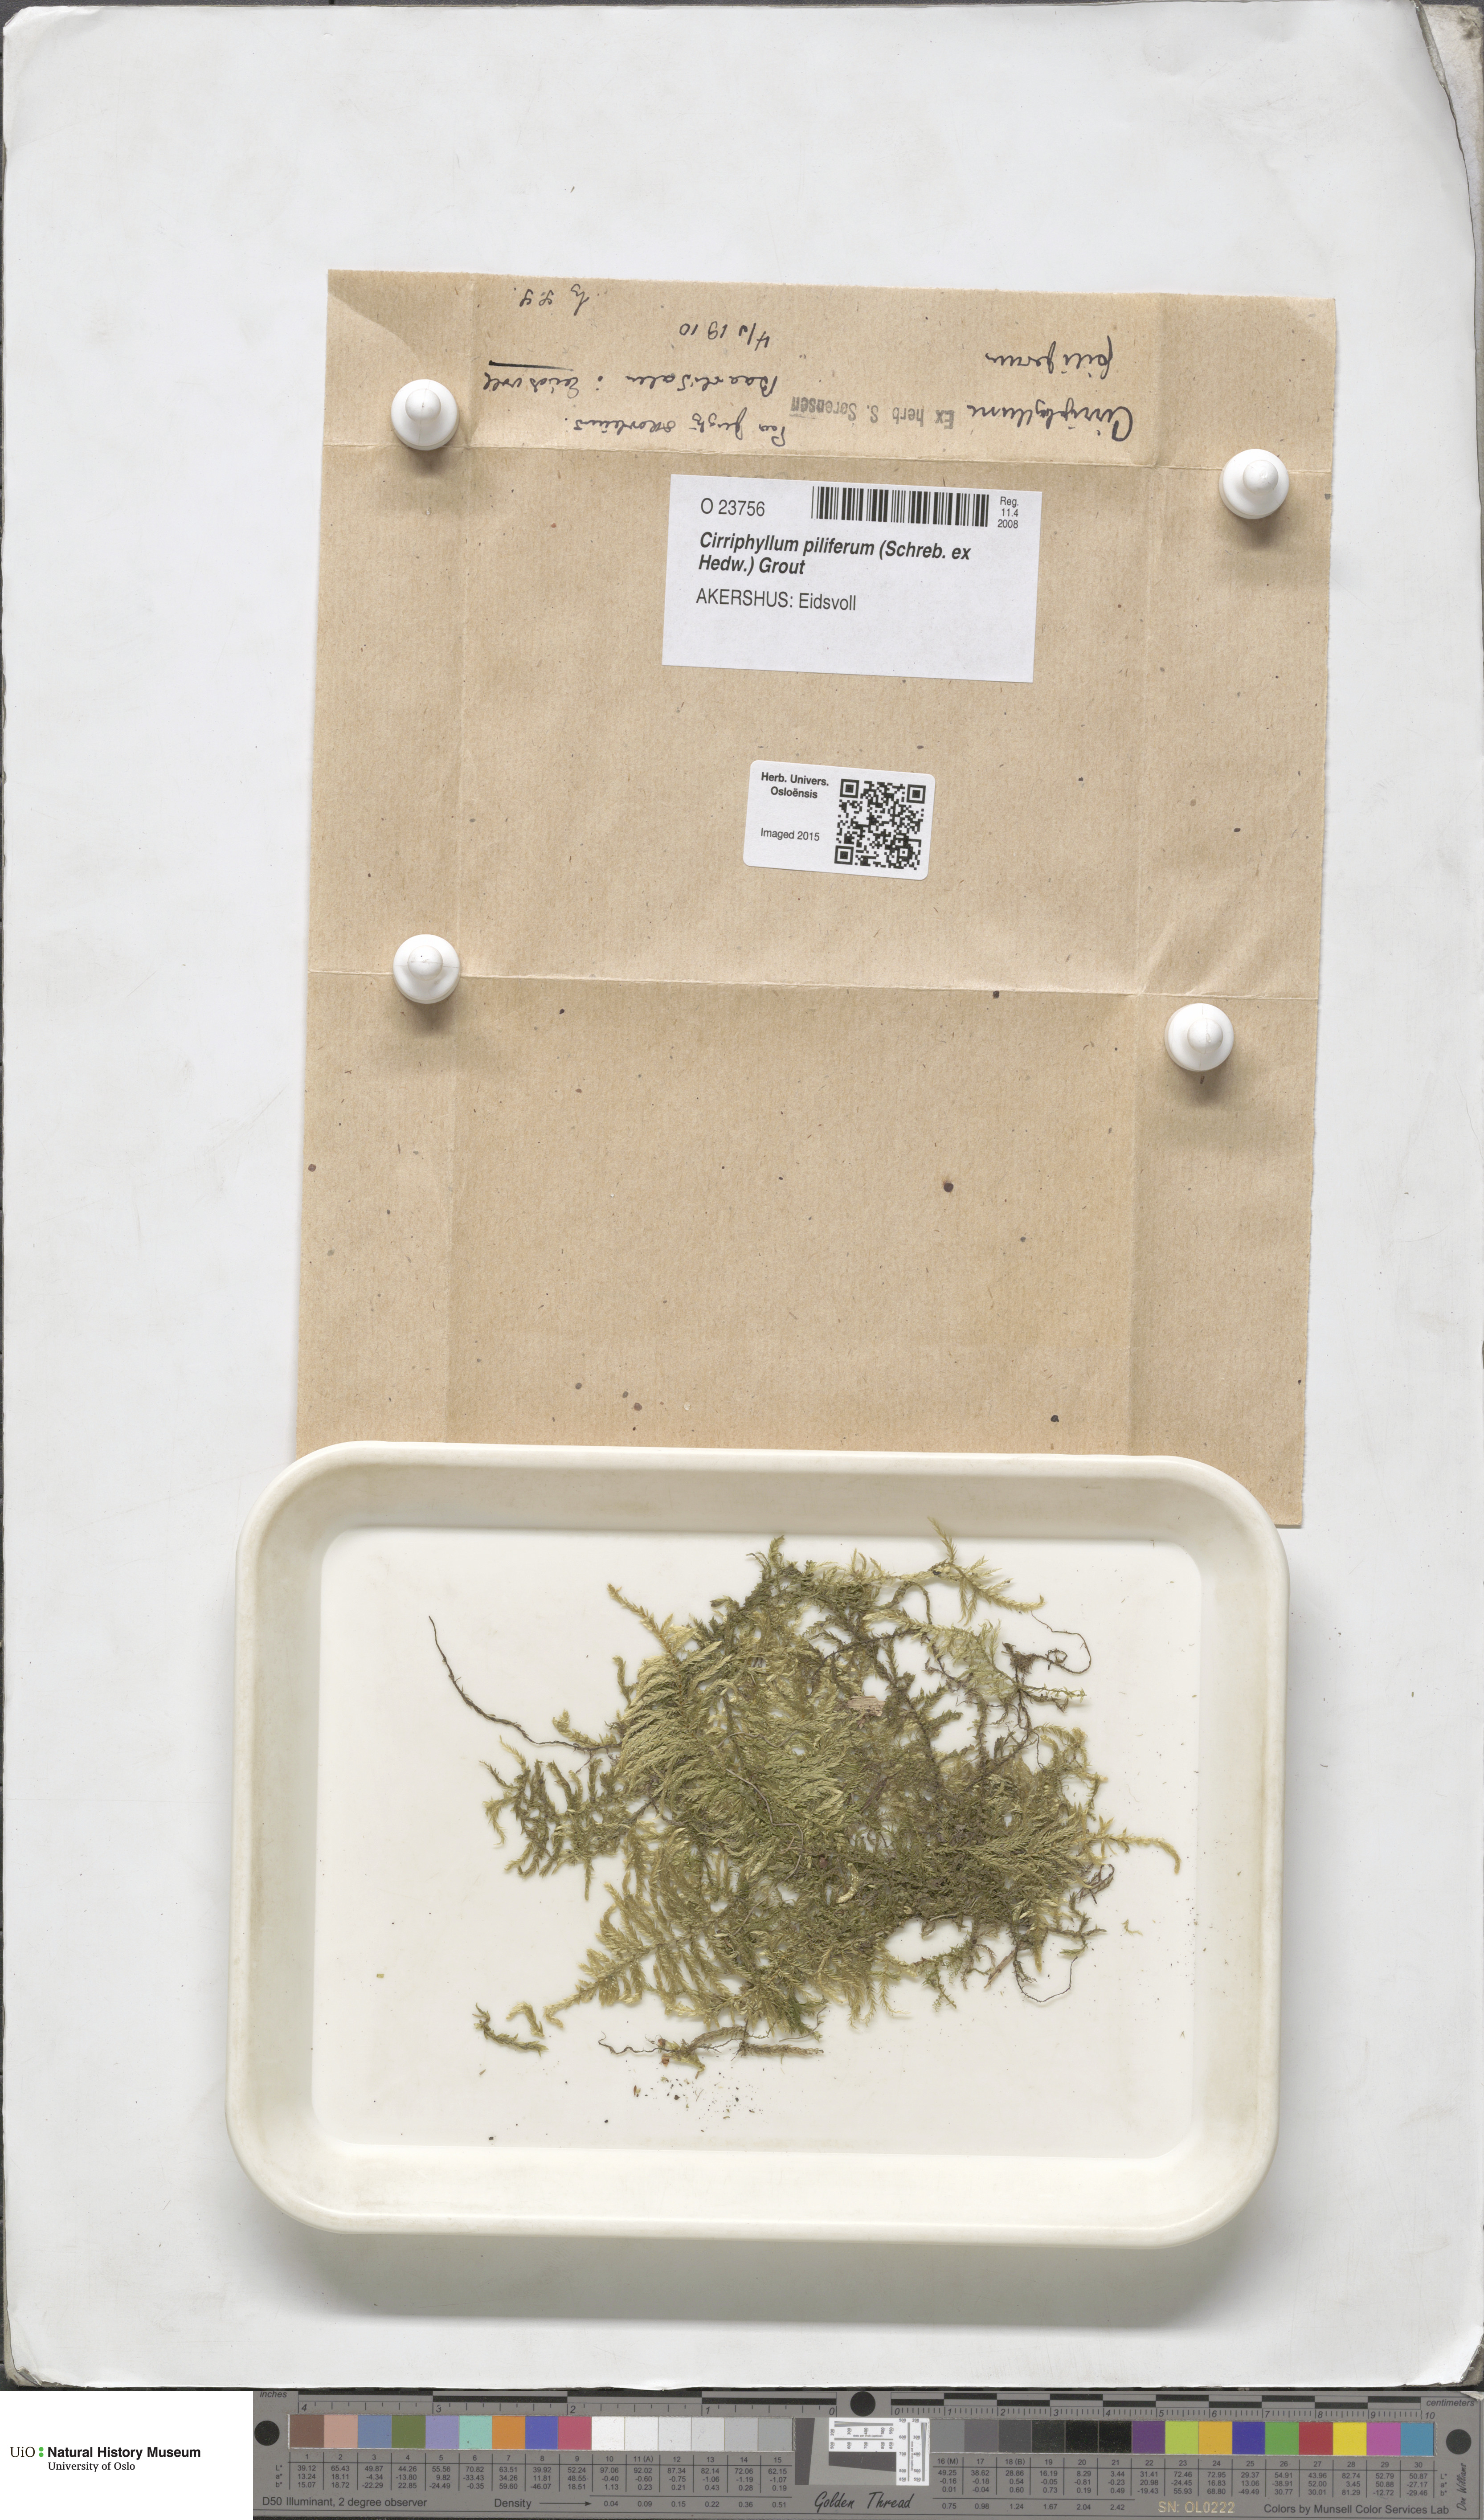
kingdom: Plantae
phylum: Bryophyta
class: Bryopsida
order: Hypnales
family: Brachytheciaceae
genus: Cirriphyllum
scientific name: Cirriphyllum piliferum
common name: Hair-pointed moss
